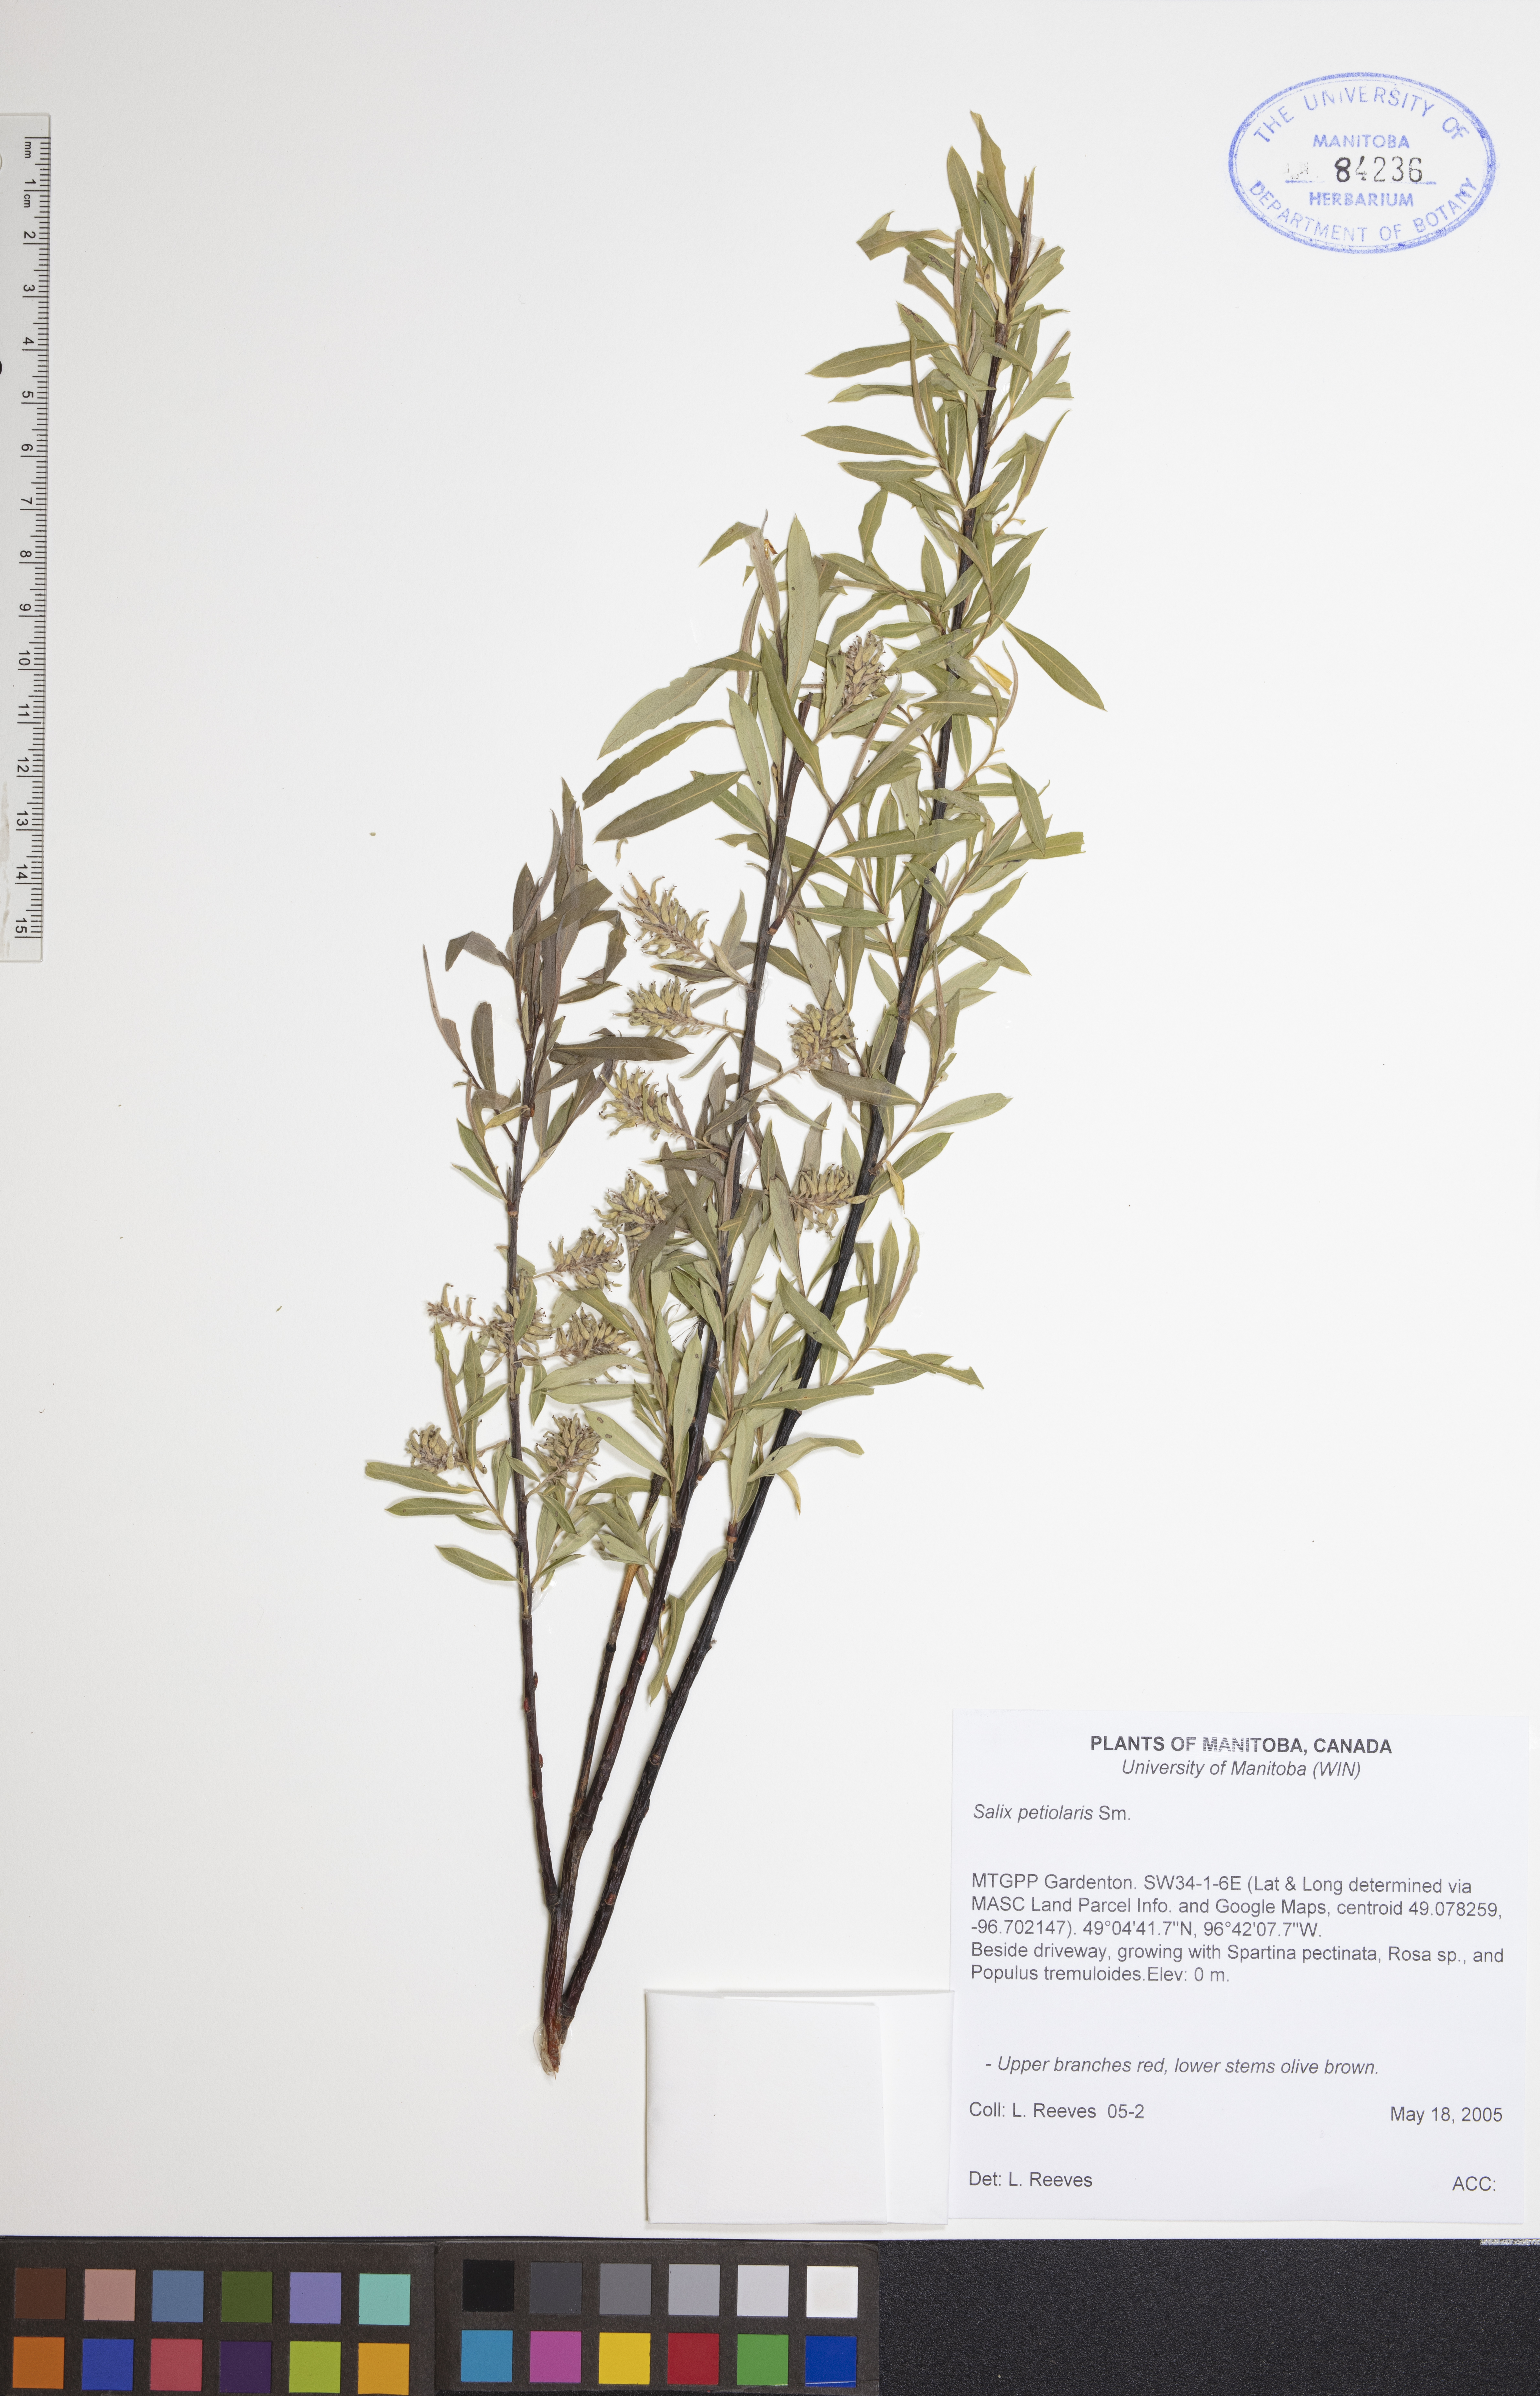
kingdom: Plantae
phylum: Tracheophyta
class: Magnoliopsida
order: Malpighiales
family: Salicaceae
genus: Salix
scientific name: Salix petiolaris
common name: Slender willow
